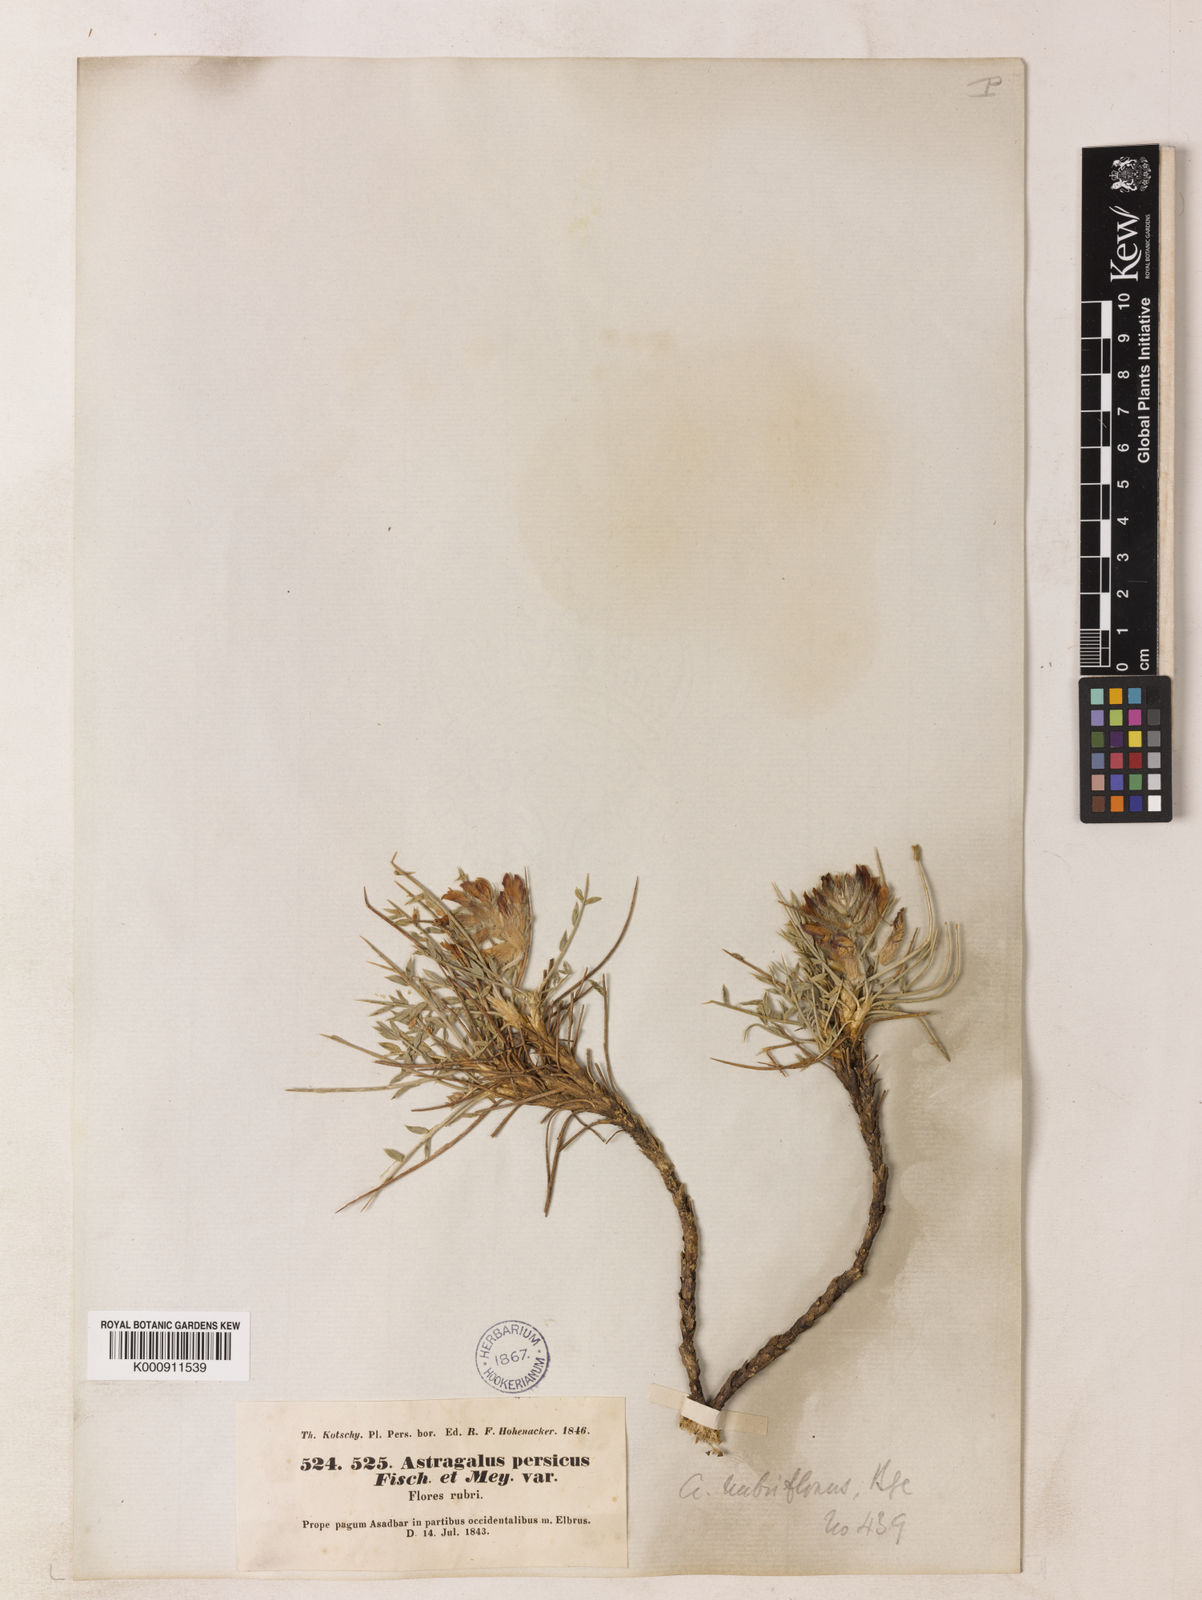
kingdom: Plantae
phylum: Tracheophyta
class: Magnoliopsida
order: Fabales
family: Fabaceae
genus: Astragalus
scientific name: Astragalus persicus
